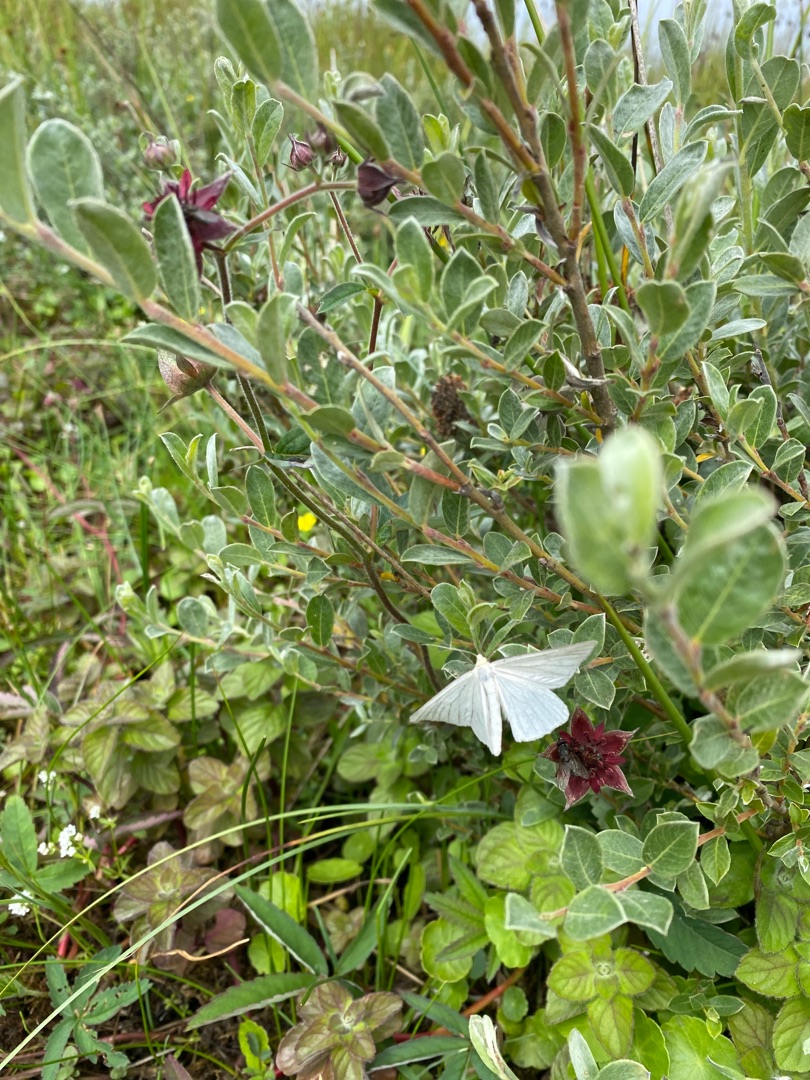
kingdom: Animalia
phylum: Arthropoda
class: Insecta
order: Lepidoptera
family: Geometridae
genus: Siona
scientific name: Siona lineata
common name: Hvidvingemåler
